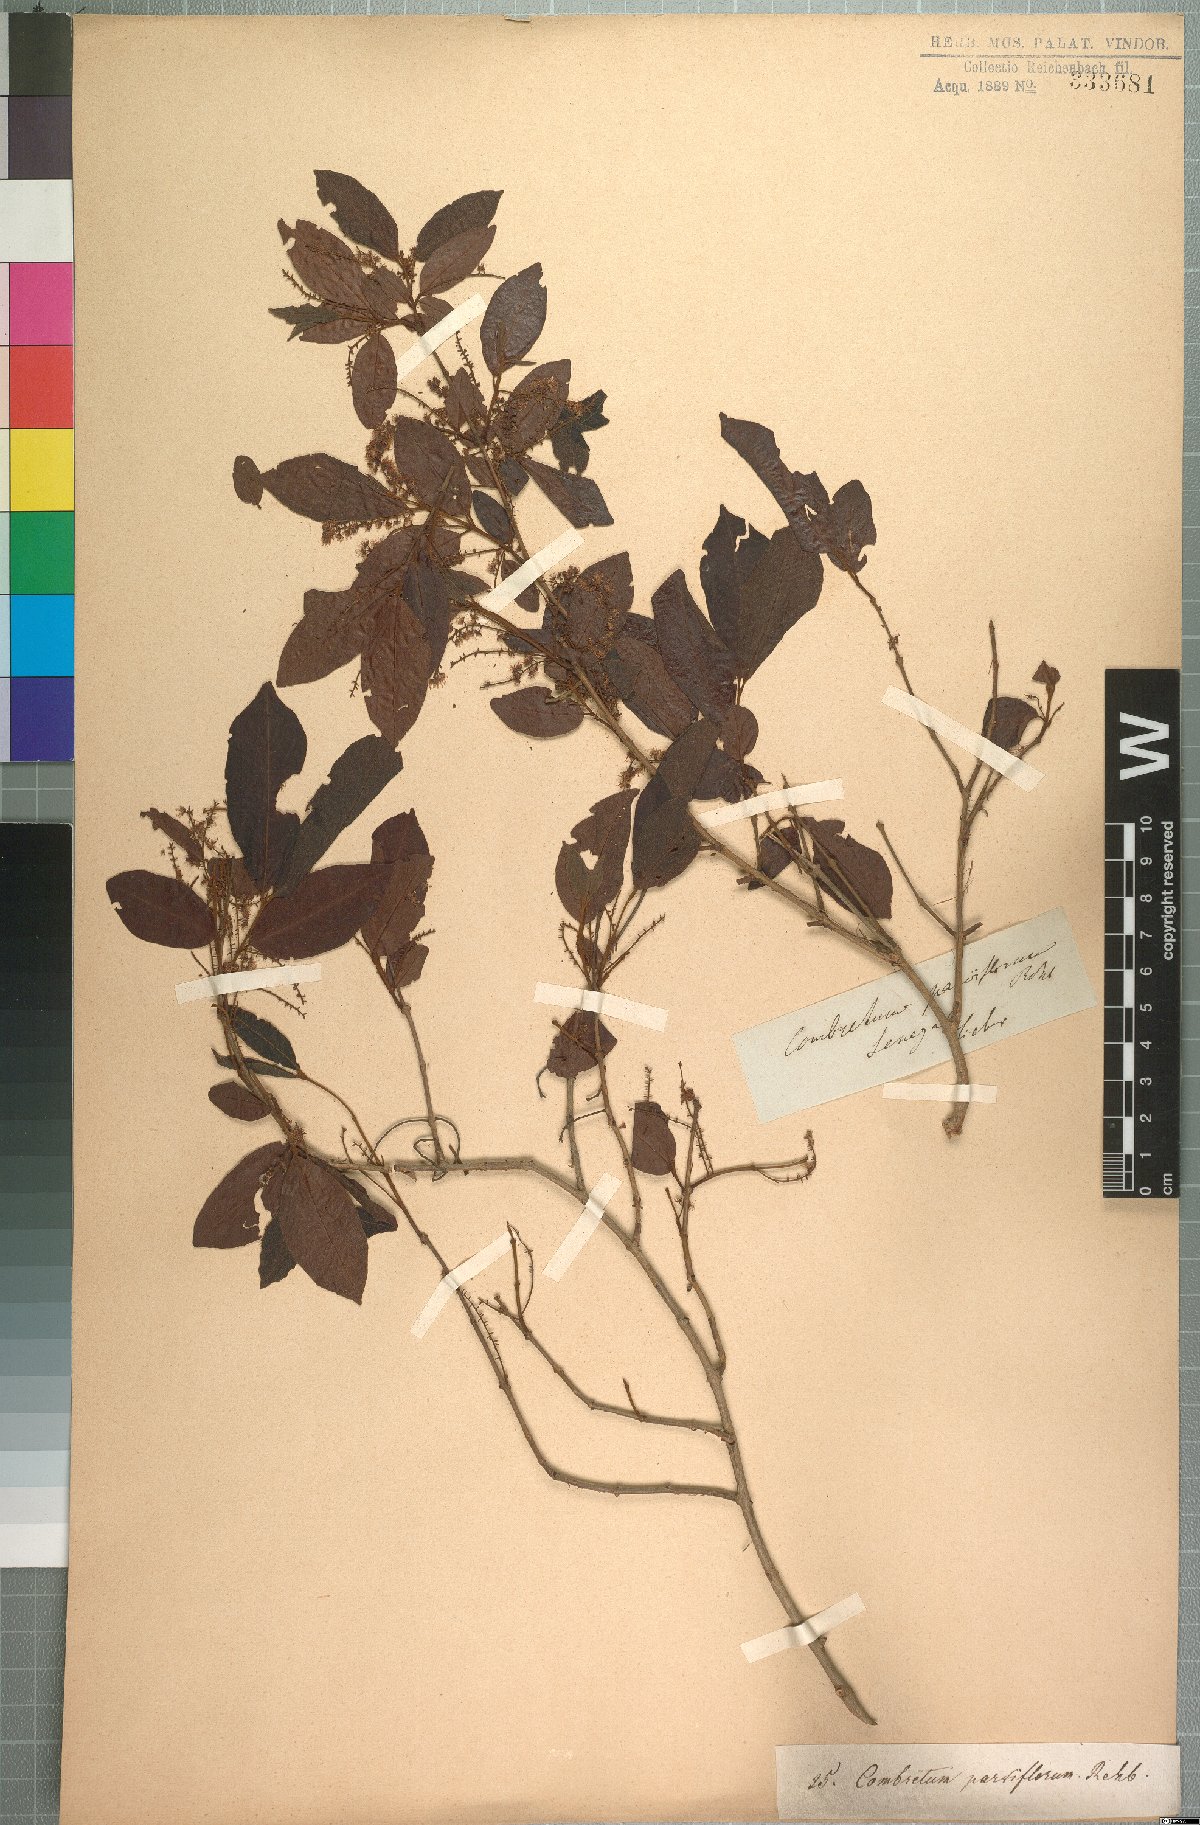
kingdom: Plantae
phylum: Tracheophyta
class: Magnoliopsida
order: Myrtales
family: Combretaceae
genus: Combretum
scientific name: Combretum micranthum
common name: Opium-antidote
